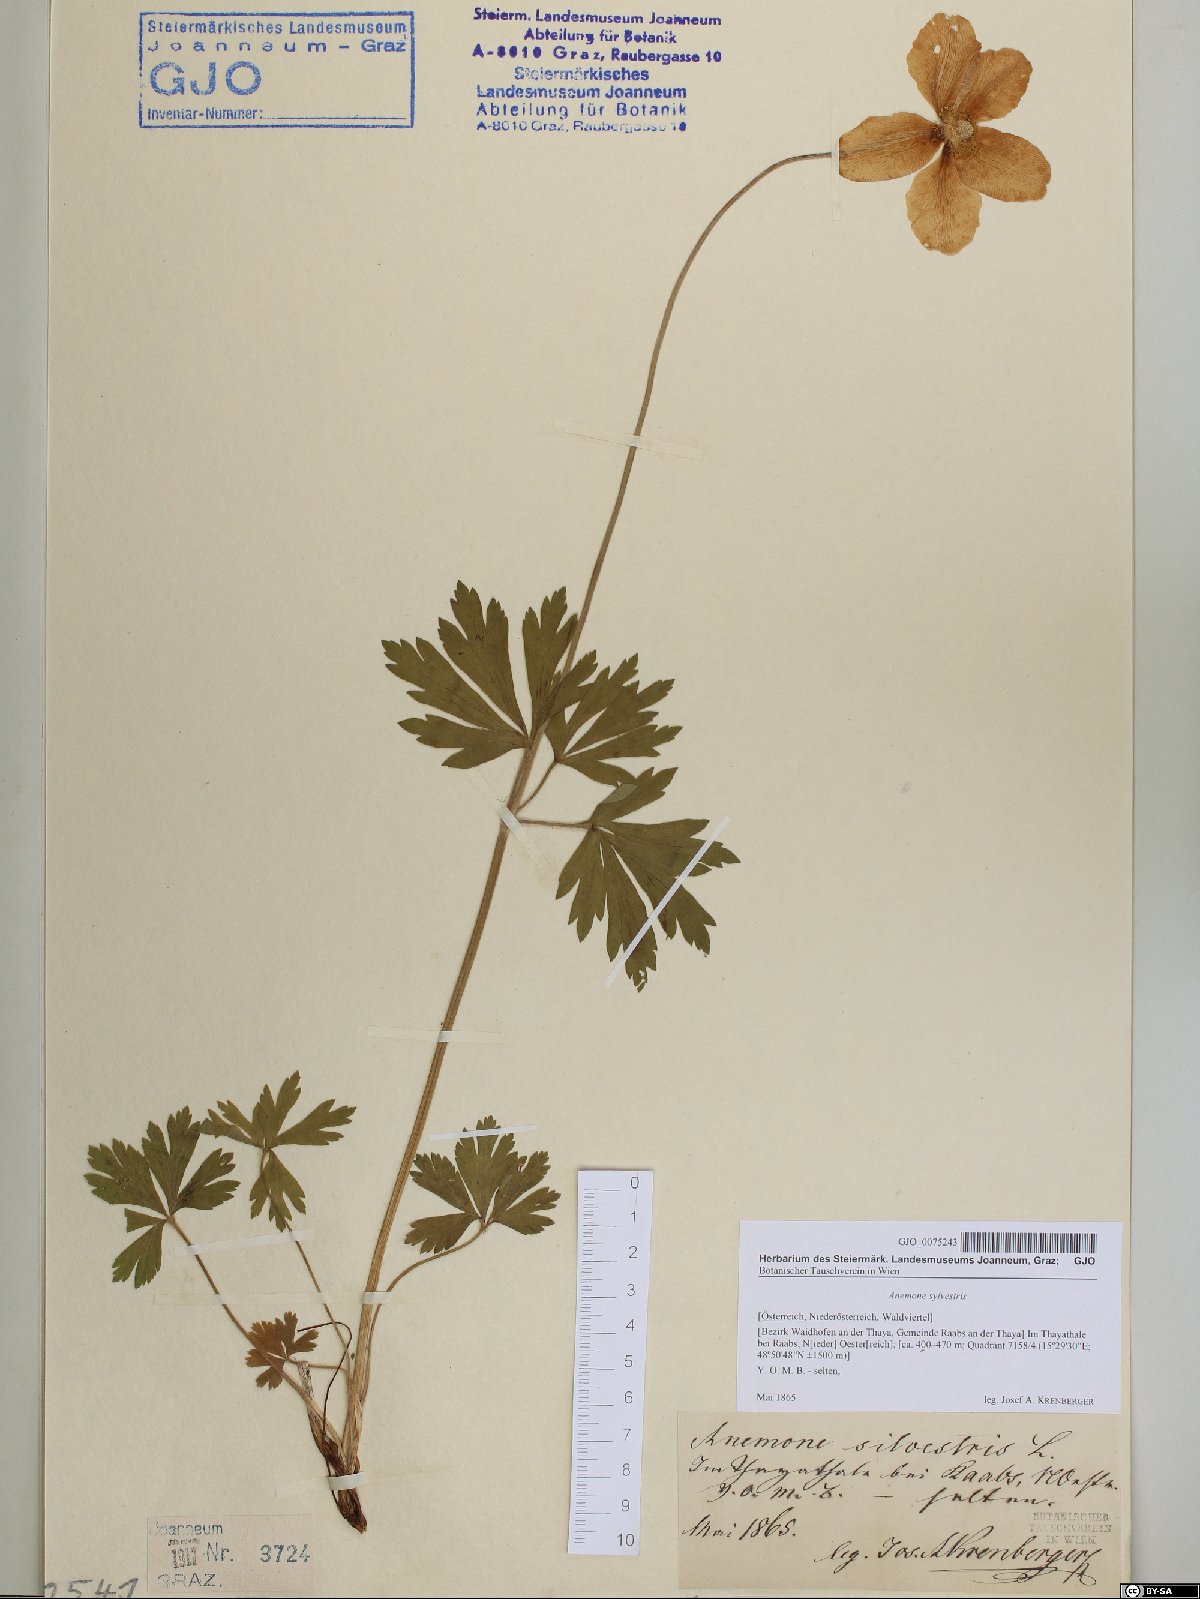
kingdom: Plantae
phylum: Tracheophyta
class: Magnoliopsida
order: Ranunculales
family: Ranunculaceae
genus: Anemone
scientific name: Anemone sylvestris
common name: Snowdrop anemone
